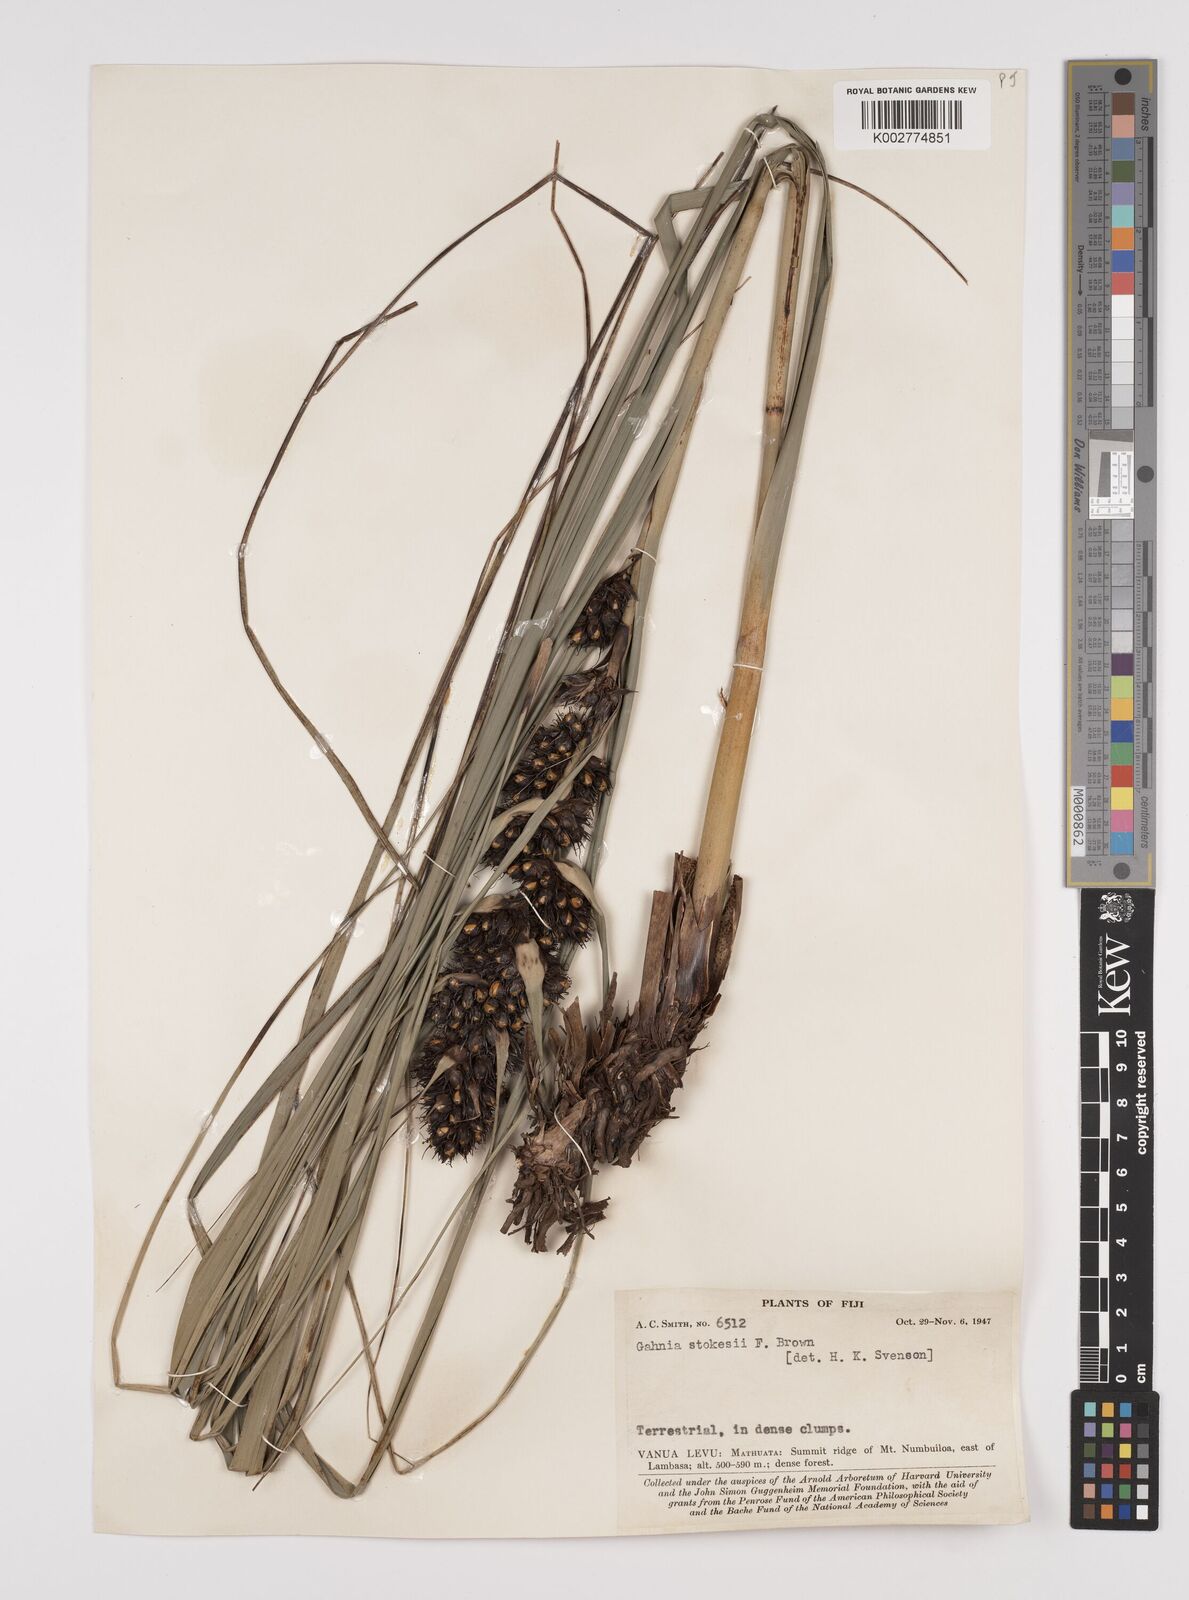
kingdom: Plantae
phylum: Tracheophyta
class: Liliopsida
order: Poales
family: Cyperaceae
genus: Gahnia
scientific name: Gahnia aspera
